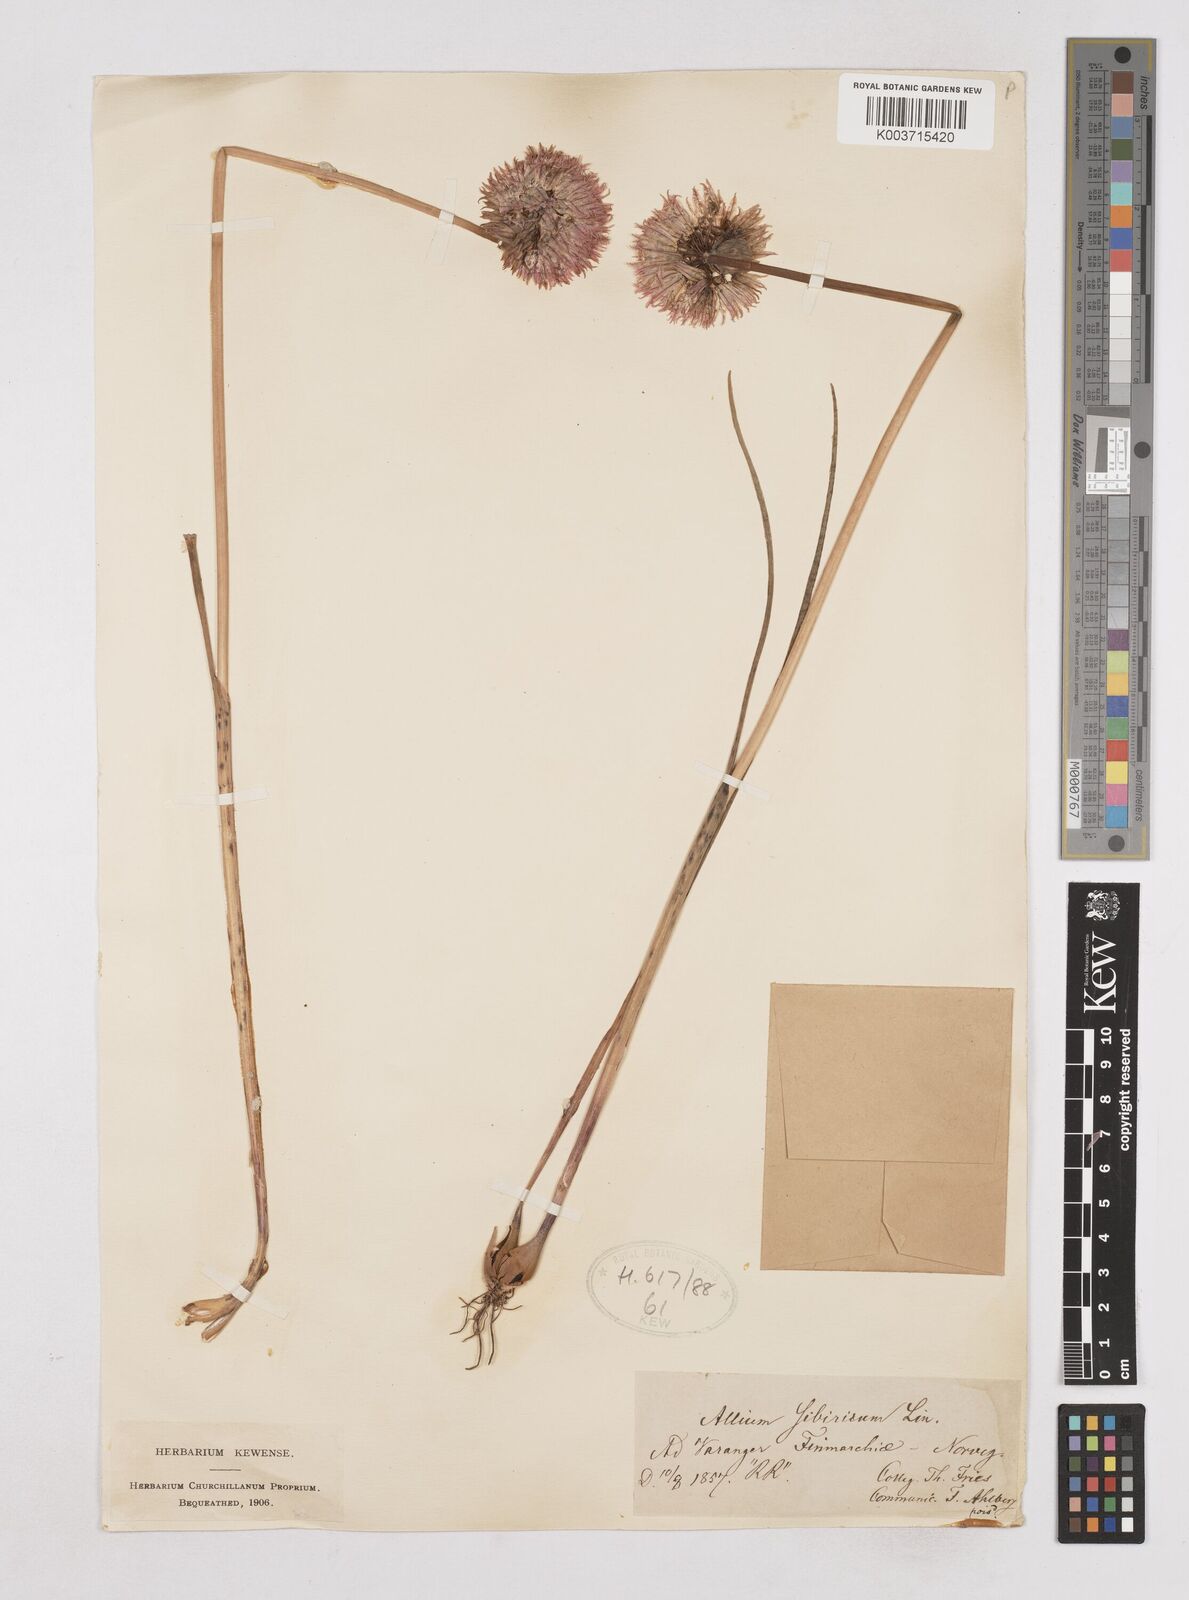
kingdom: Plantae
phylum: Tracheophyta
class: Liliopsida
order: Asparagales
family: Amaryllidaceae
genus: Allium
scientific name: Allium schoenoprasum
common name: Chives
